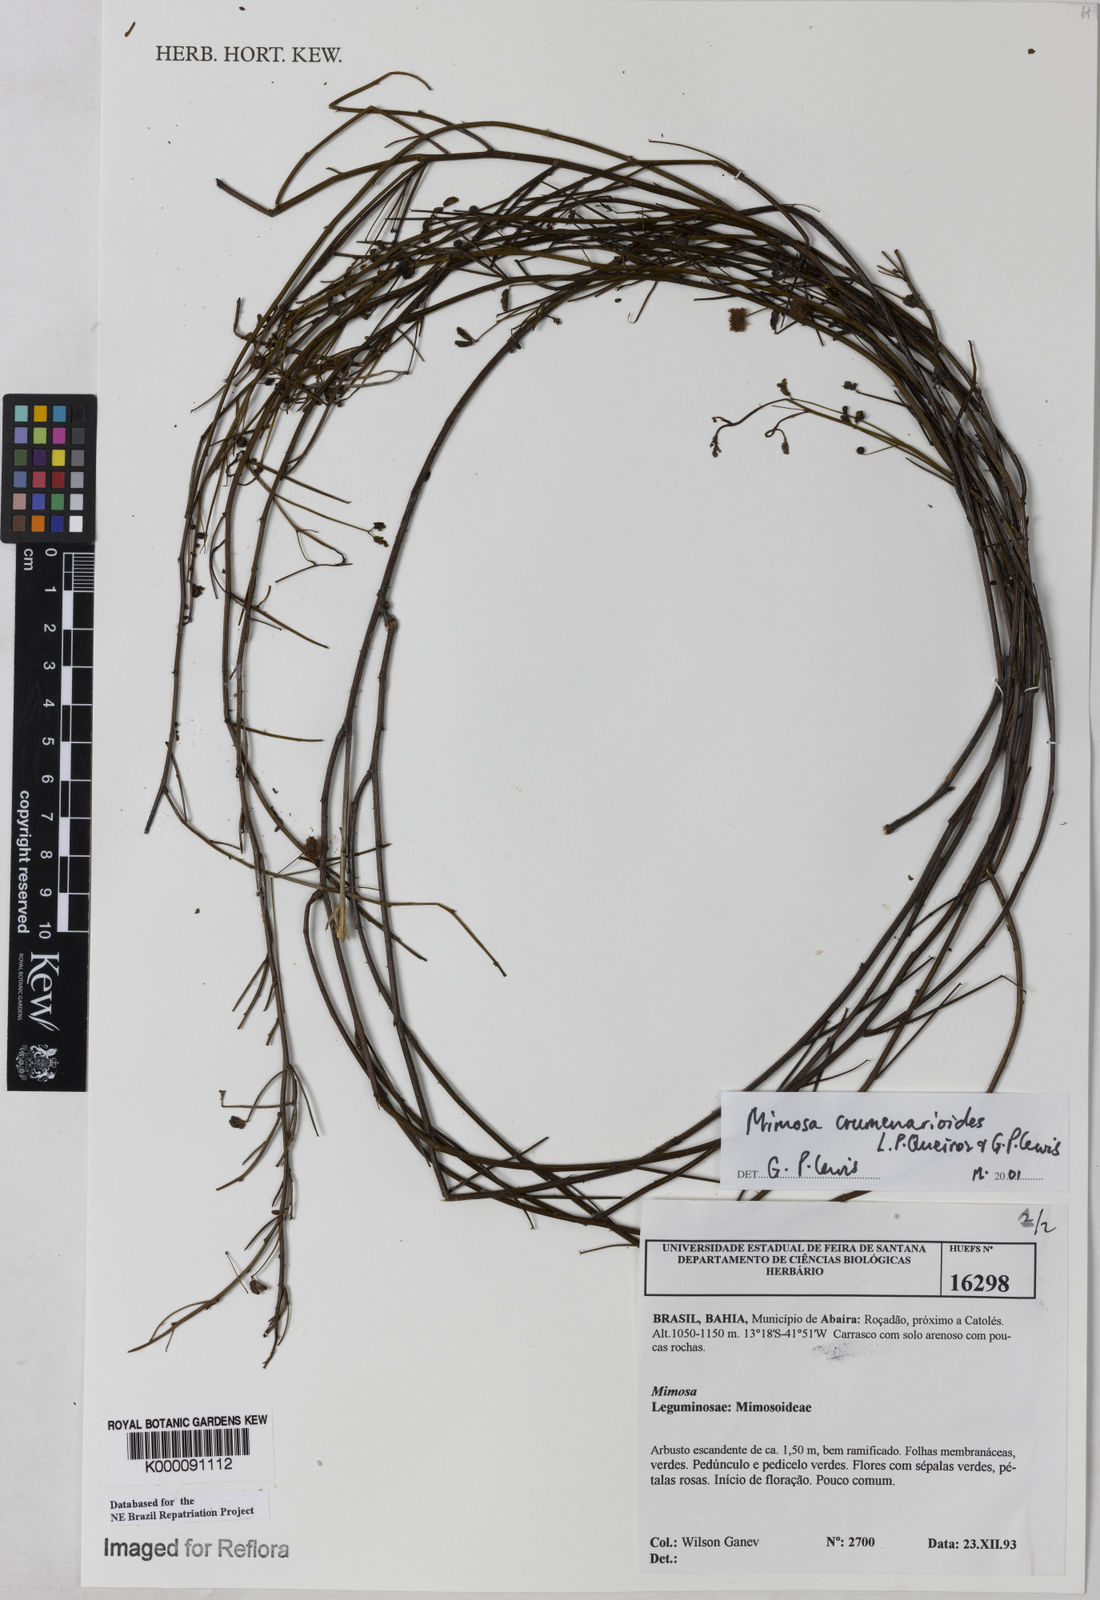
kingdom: Plantae
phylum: Tracheophyta
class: Magnoliopsida
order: Fabales
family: Fabaceae
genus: Mimosa
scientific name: Mimosa crumenarioides
